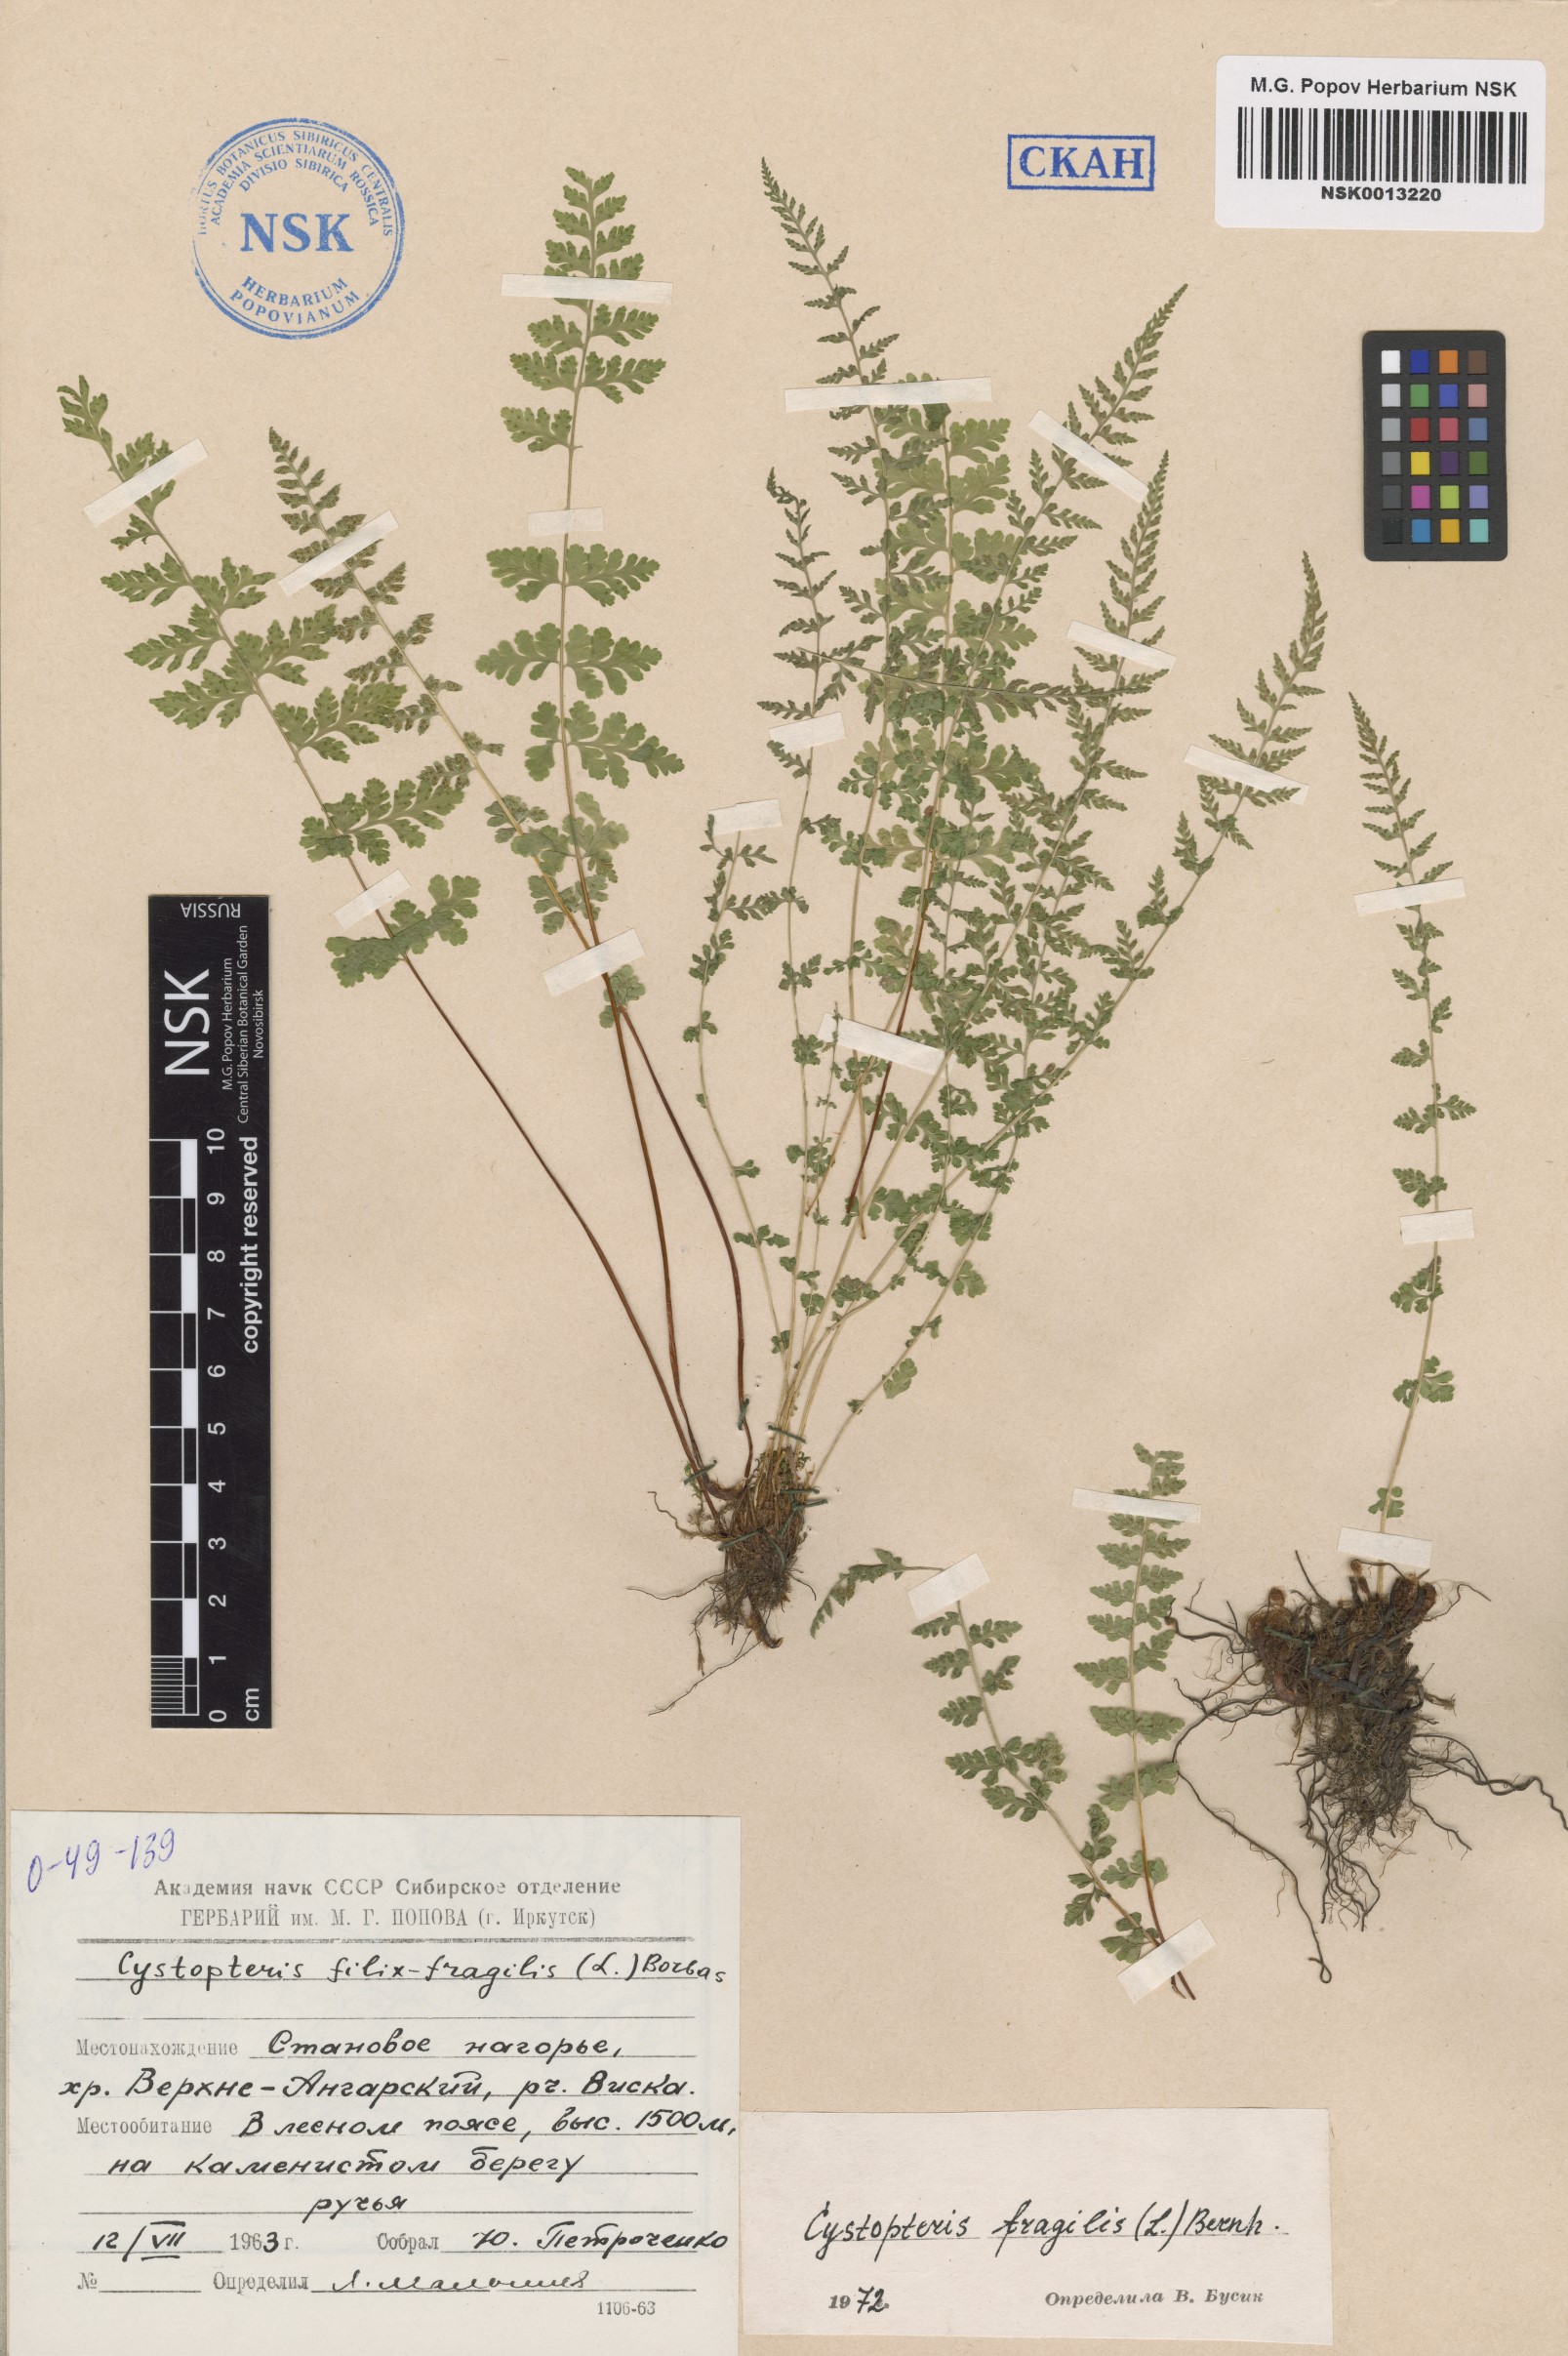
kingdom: Plantae
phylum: Tracheophyta
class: Polypodiopsida
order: Polypodiales
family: Cystopteridaceae
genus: Cystopteris
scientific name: Cystopteris fragilis
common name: Brittle bladder fern
